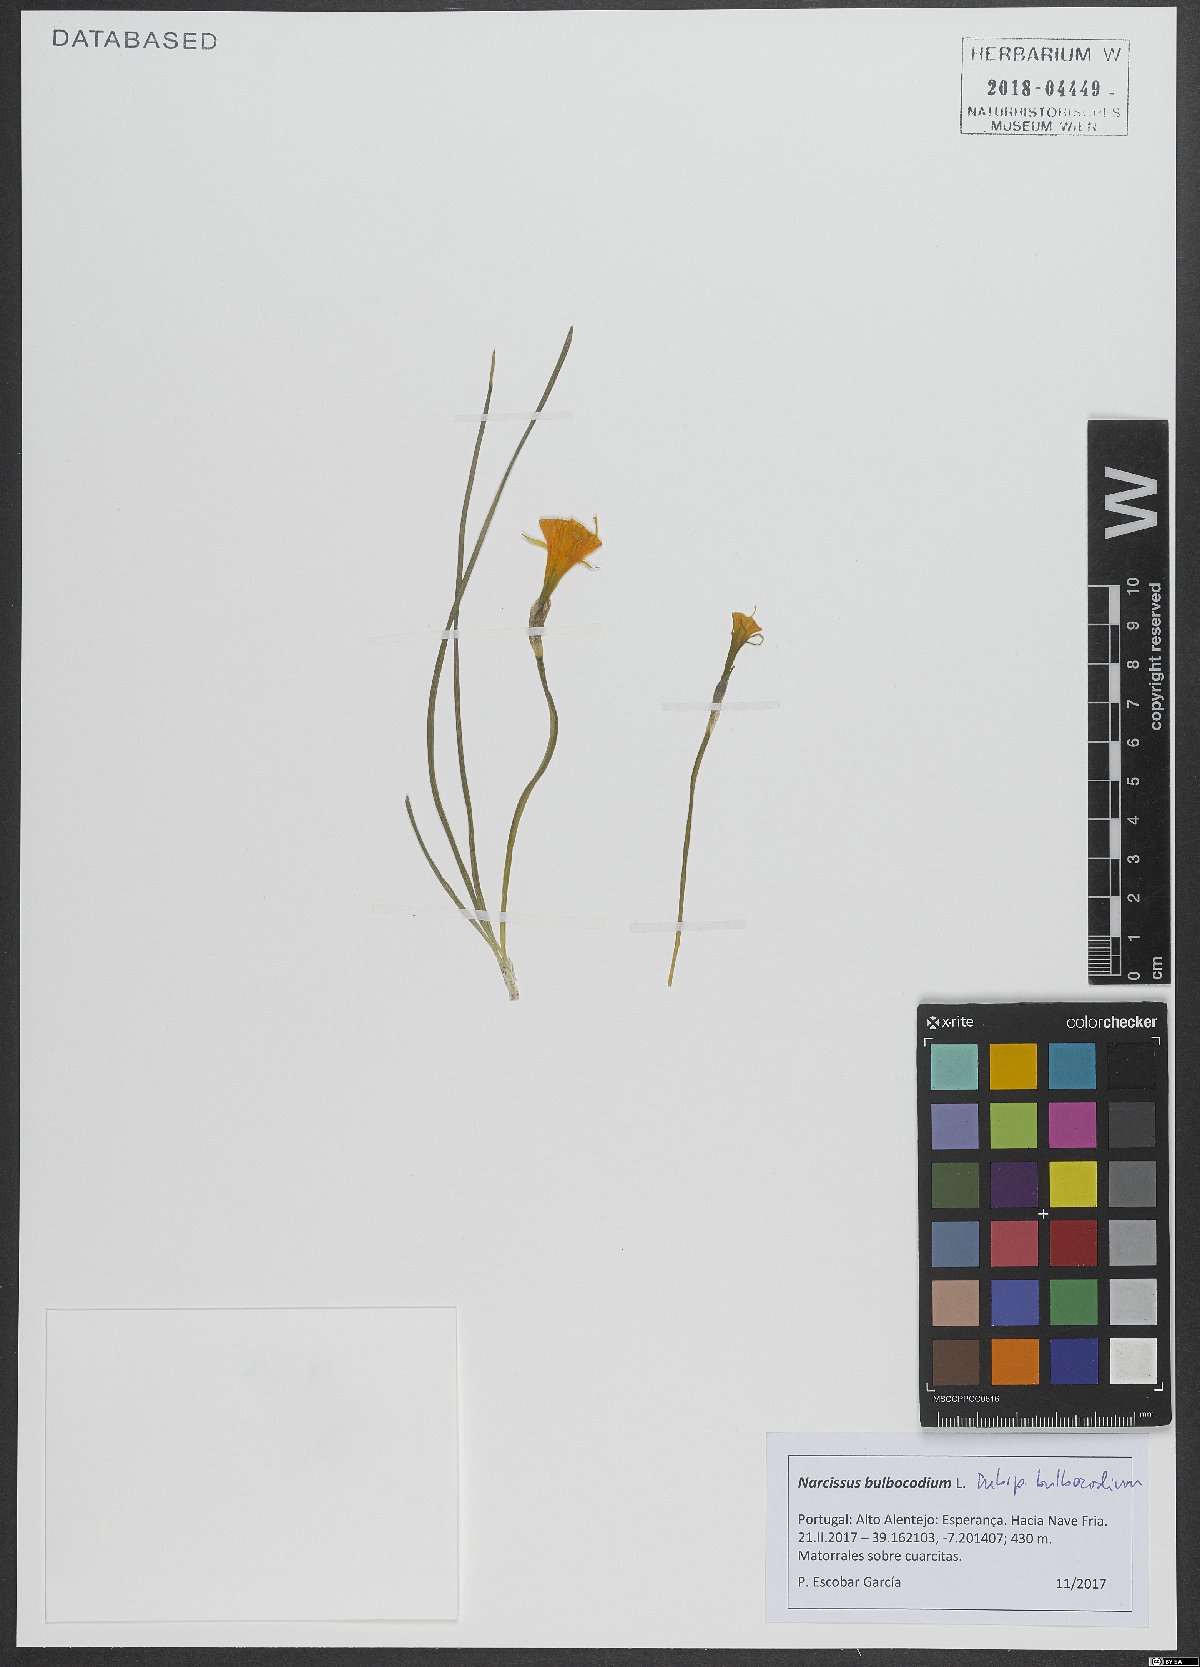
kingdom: Plantae
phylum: Tracheophyta
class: Liliopsida
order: Asparagales
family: Amaryllidaceae
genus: Narcissus
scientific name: Narcissus bulbocodium
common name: Hoop-petticoat daffodil
